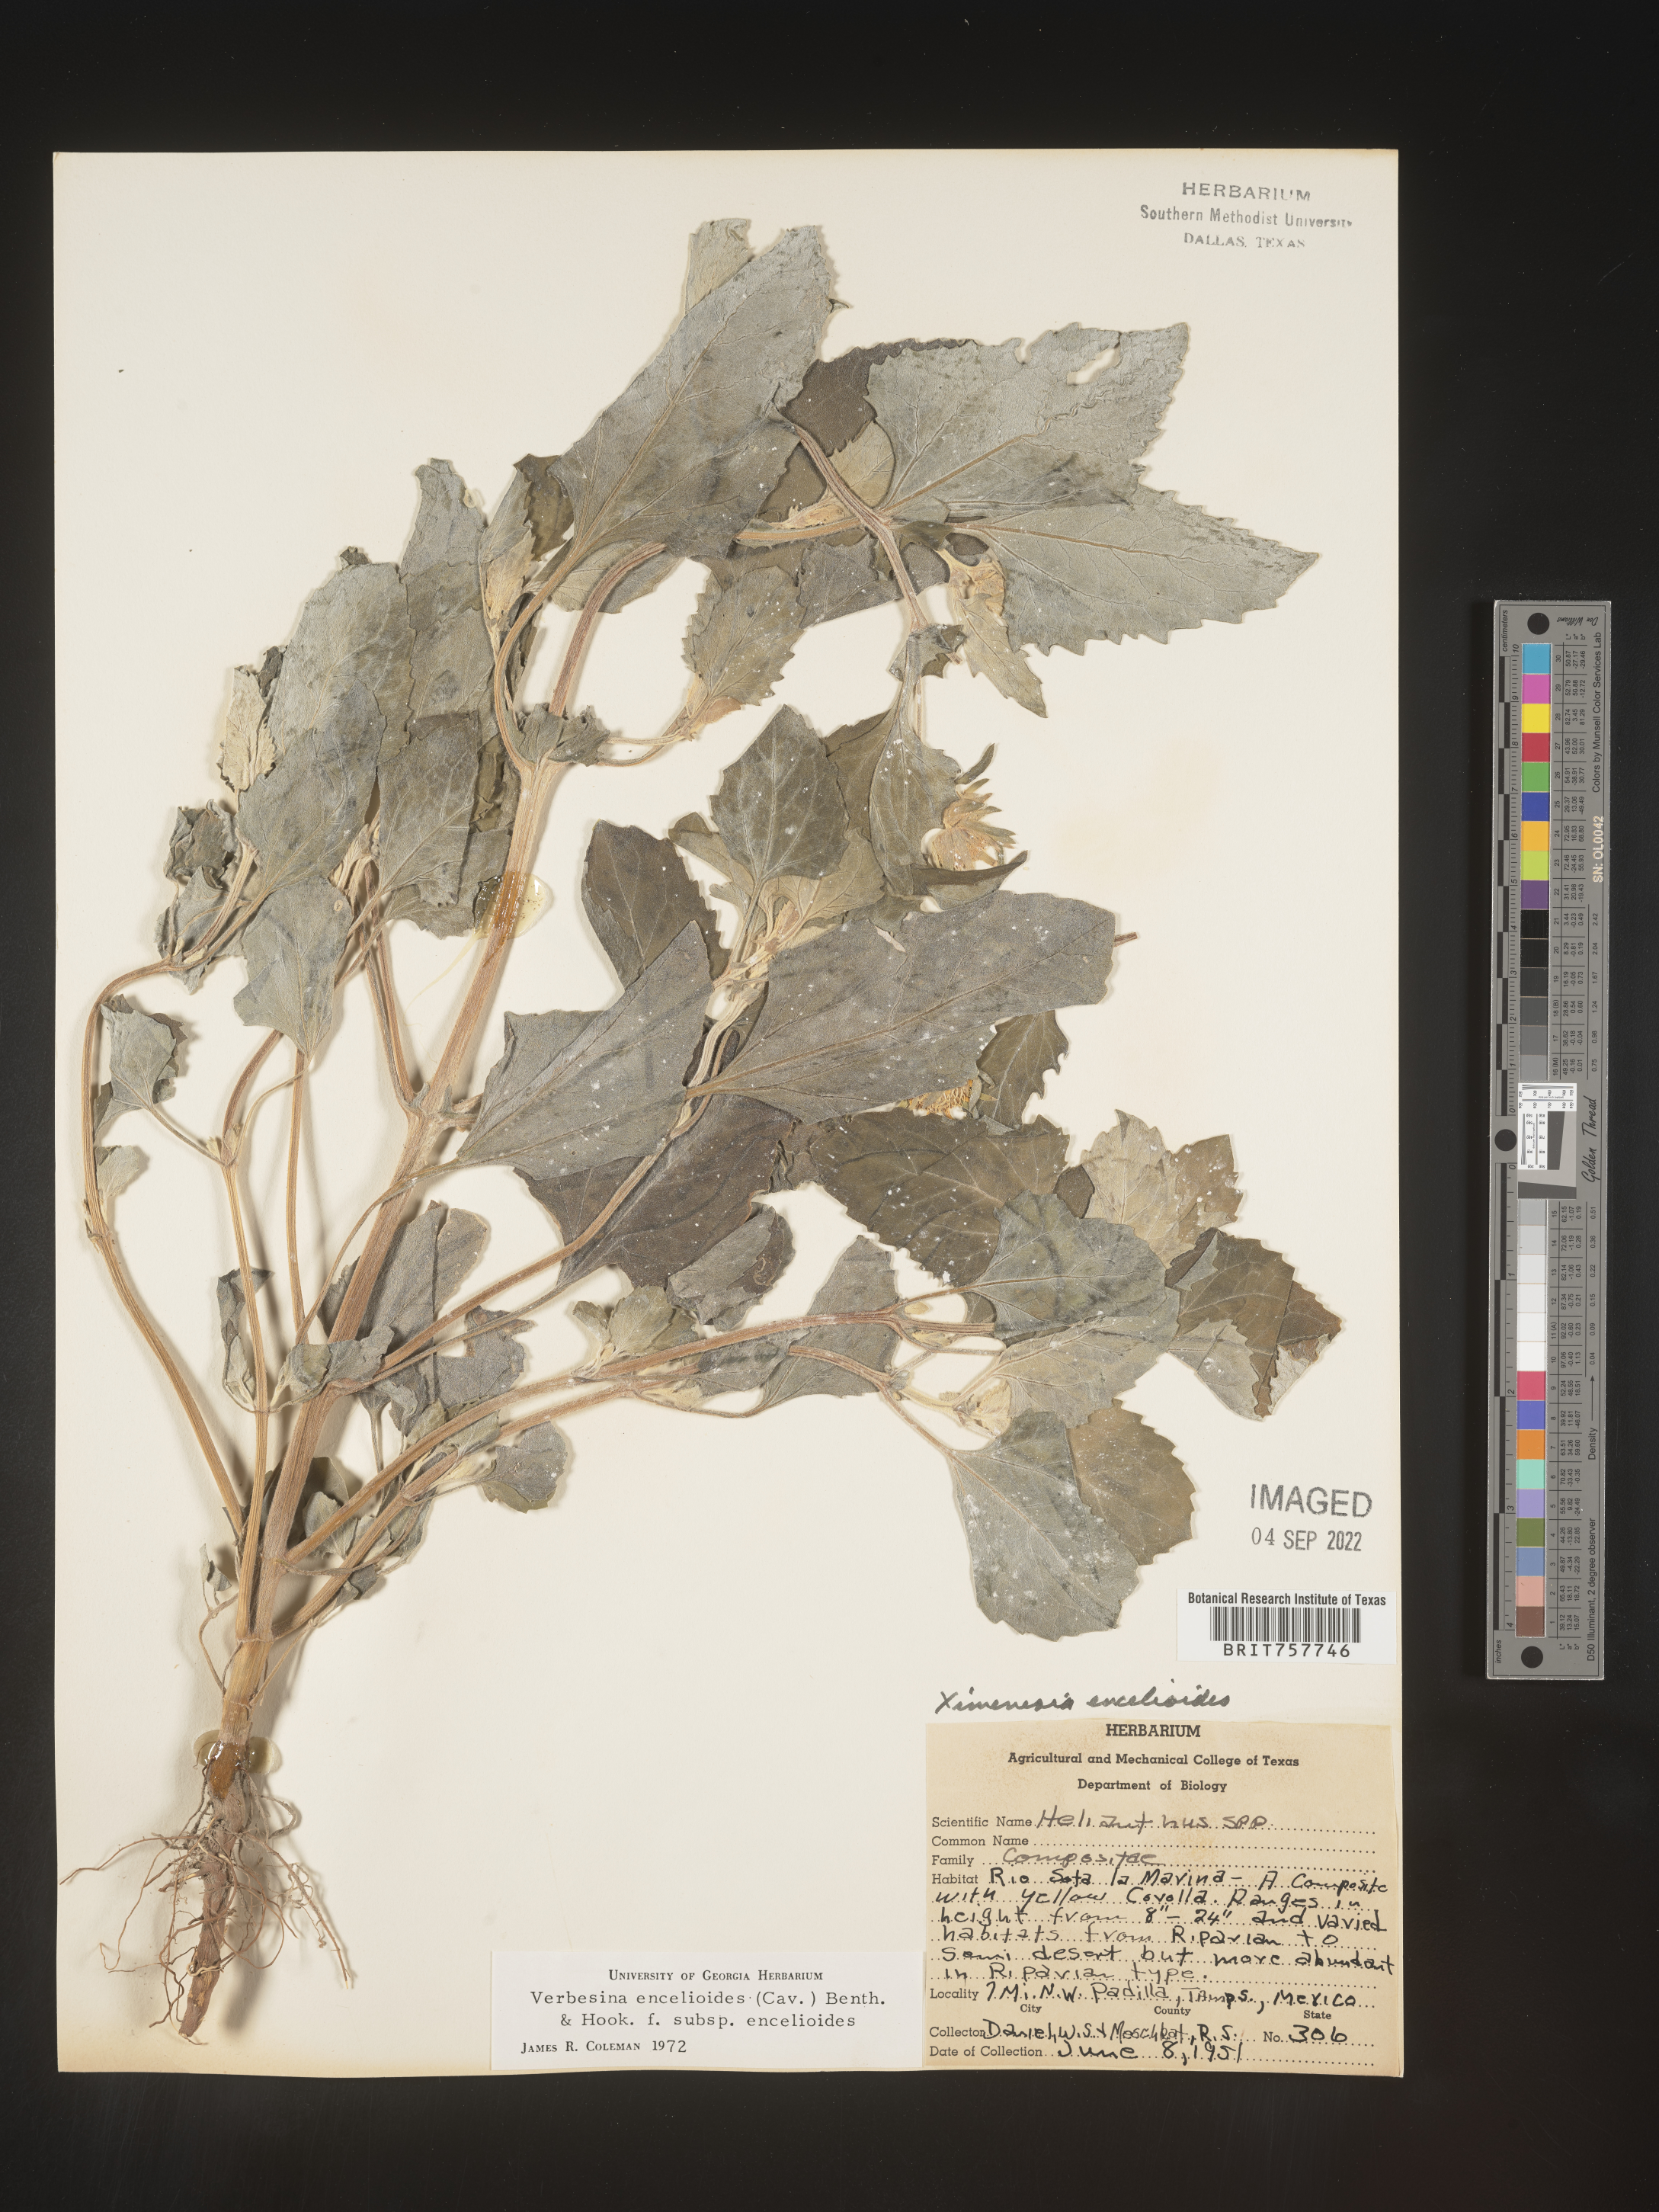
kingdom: Plantae
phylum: Tracheophyta
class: Magnoliopsida
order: Asterales
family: Asteraceae
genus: Verbesina
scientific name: Verbesina
